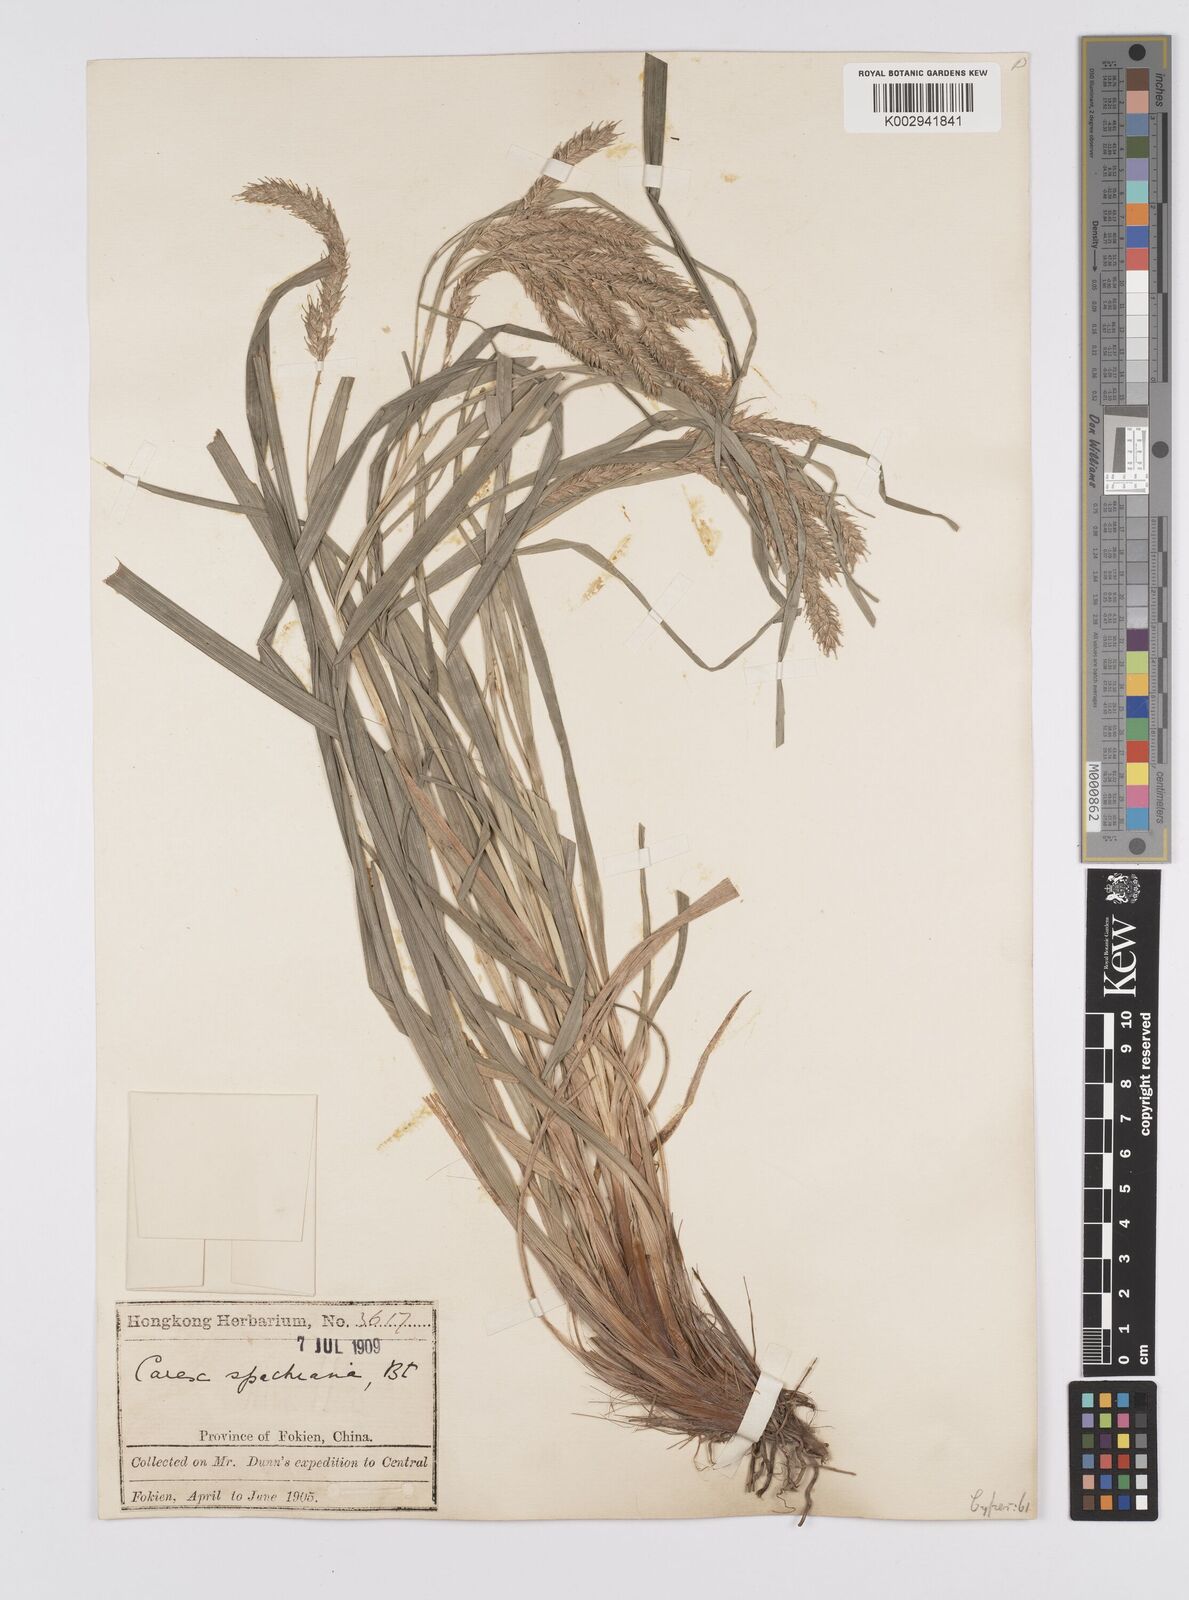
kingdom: Plantae
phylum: Tracheophyta
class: Liliopsida
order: Poales
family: Cyperaceae
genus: Carex
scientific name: Carex spachiana
